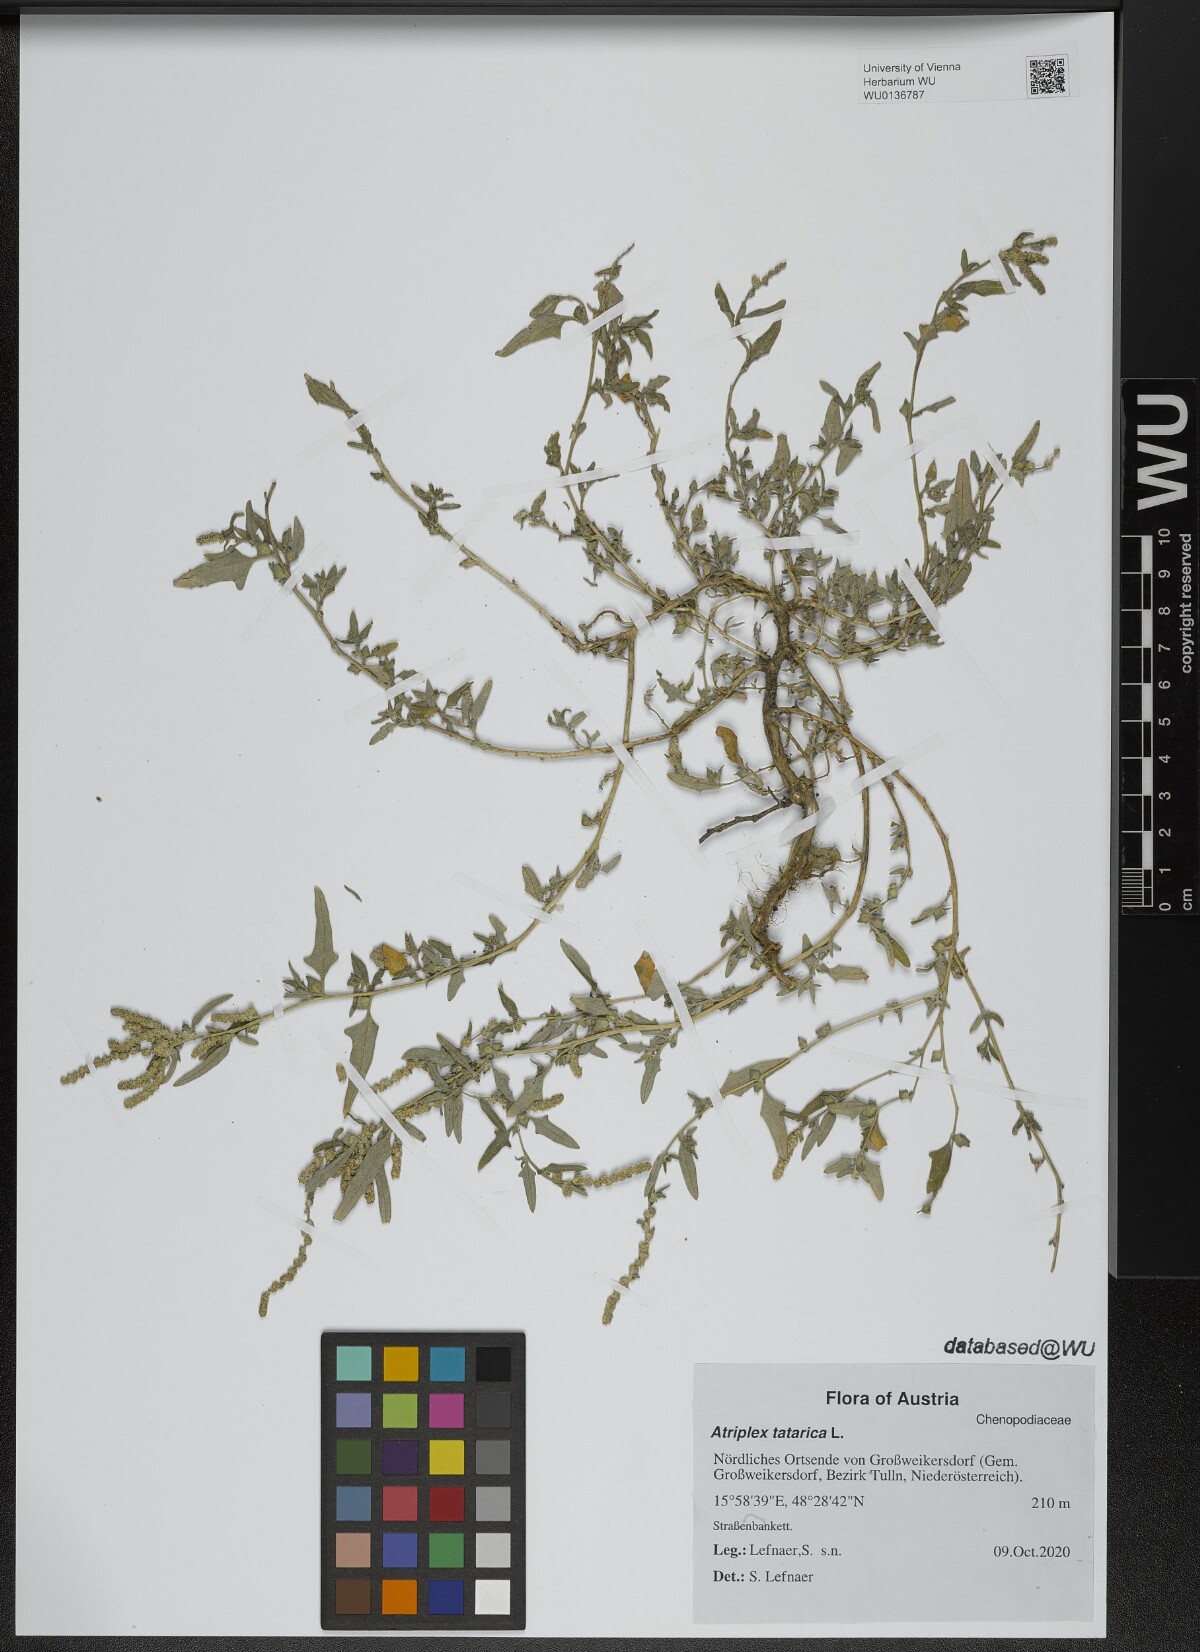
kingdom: Plantae
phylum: Tracheophyta
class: Magnoliopsida
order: Caryophyllales
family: Amaranthaceae
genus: Atriplex
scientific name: Atriplex tatarica
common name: Tatarian orache
